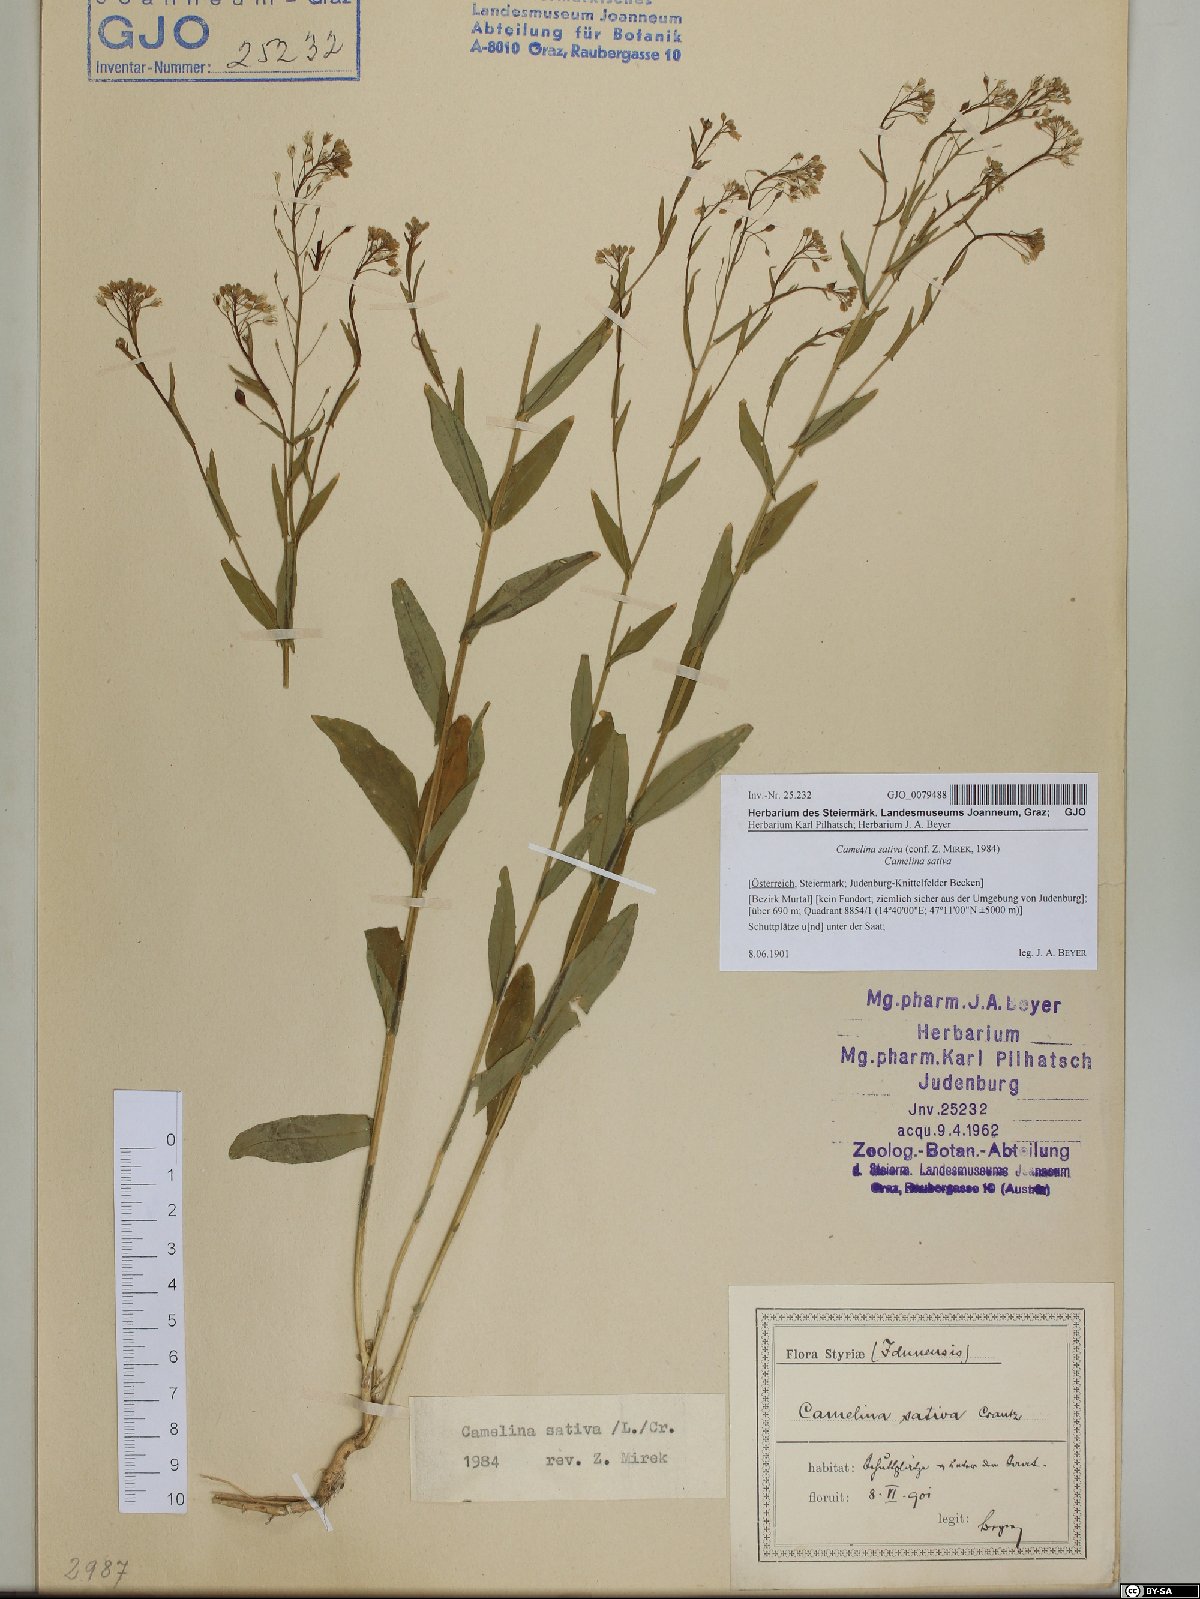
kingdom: Plantae
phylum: Tracheophyta
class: Magnoliopsida
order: Brassicales
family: Brassicaceae
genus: Camelina
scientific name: Camelina sativa
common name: Gold-of-pleasure
